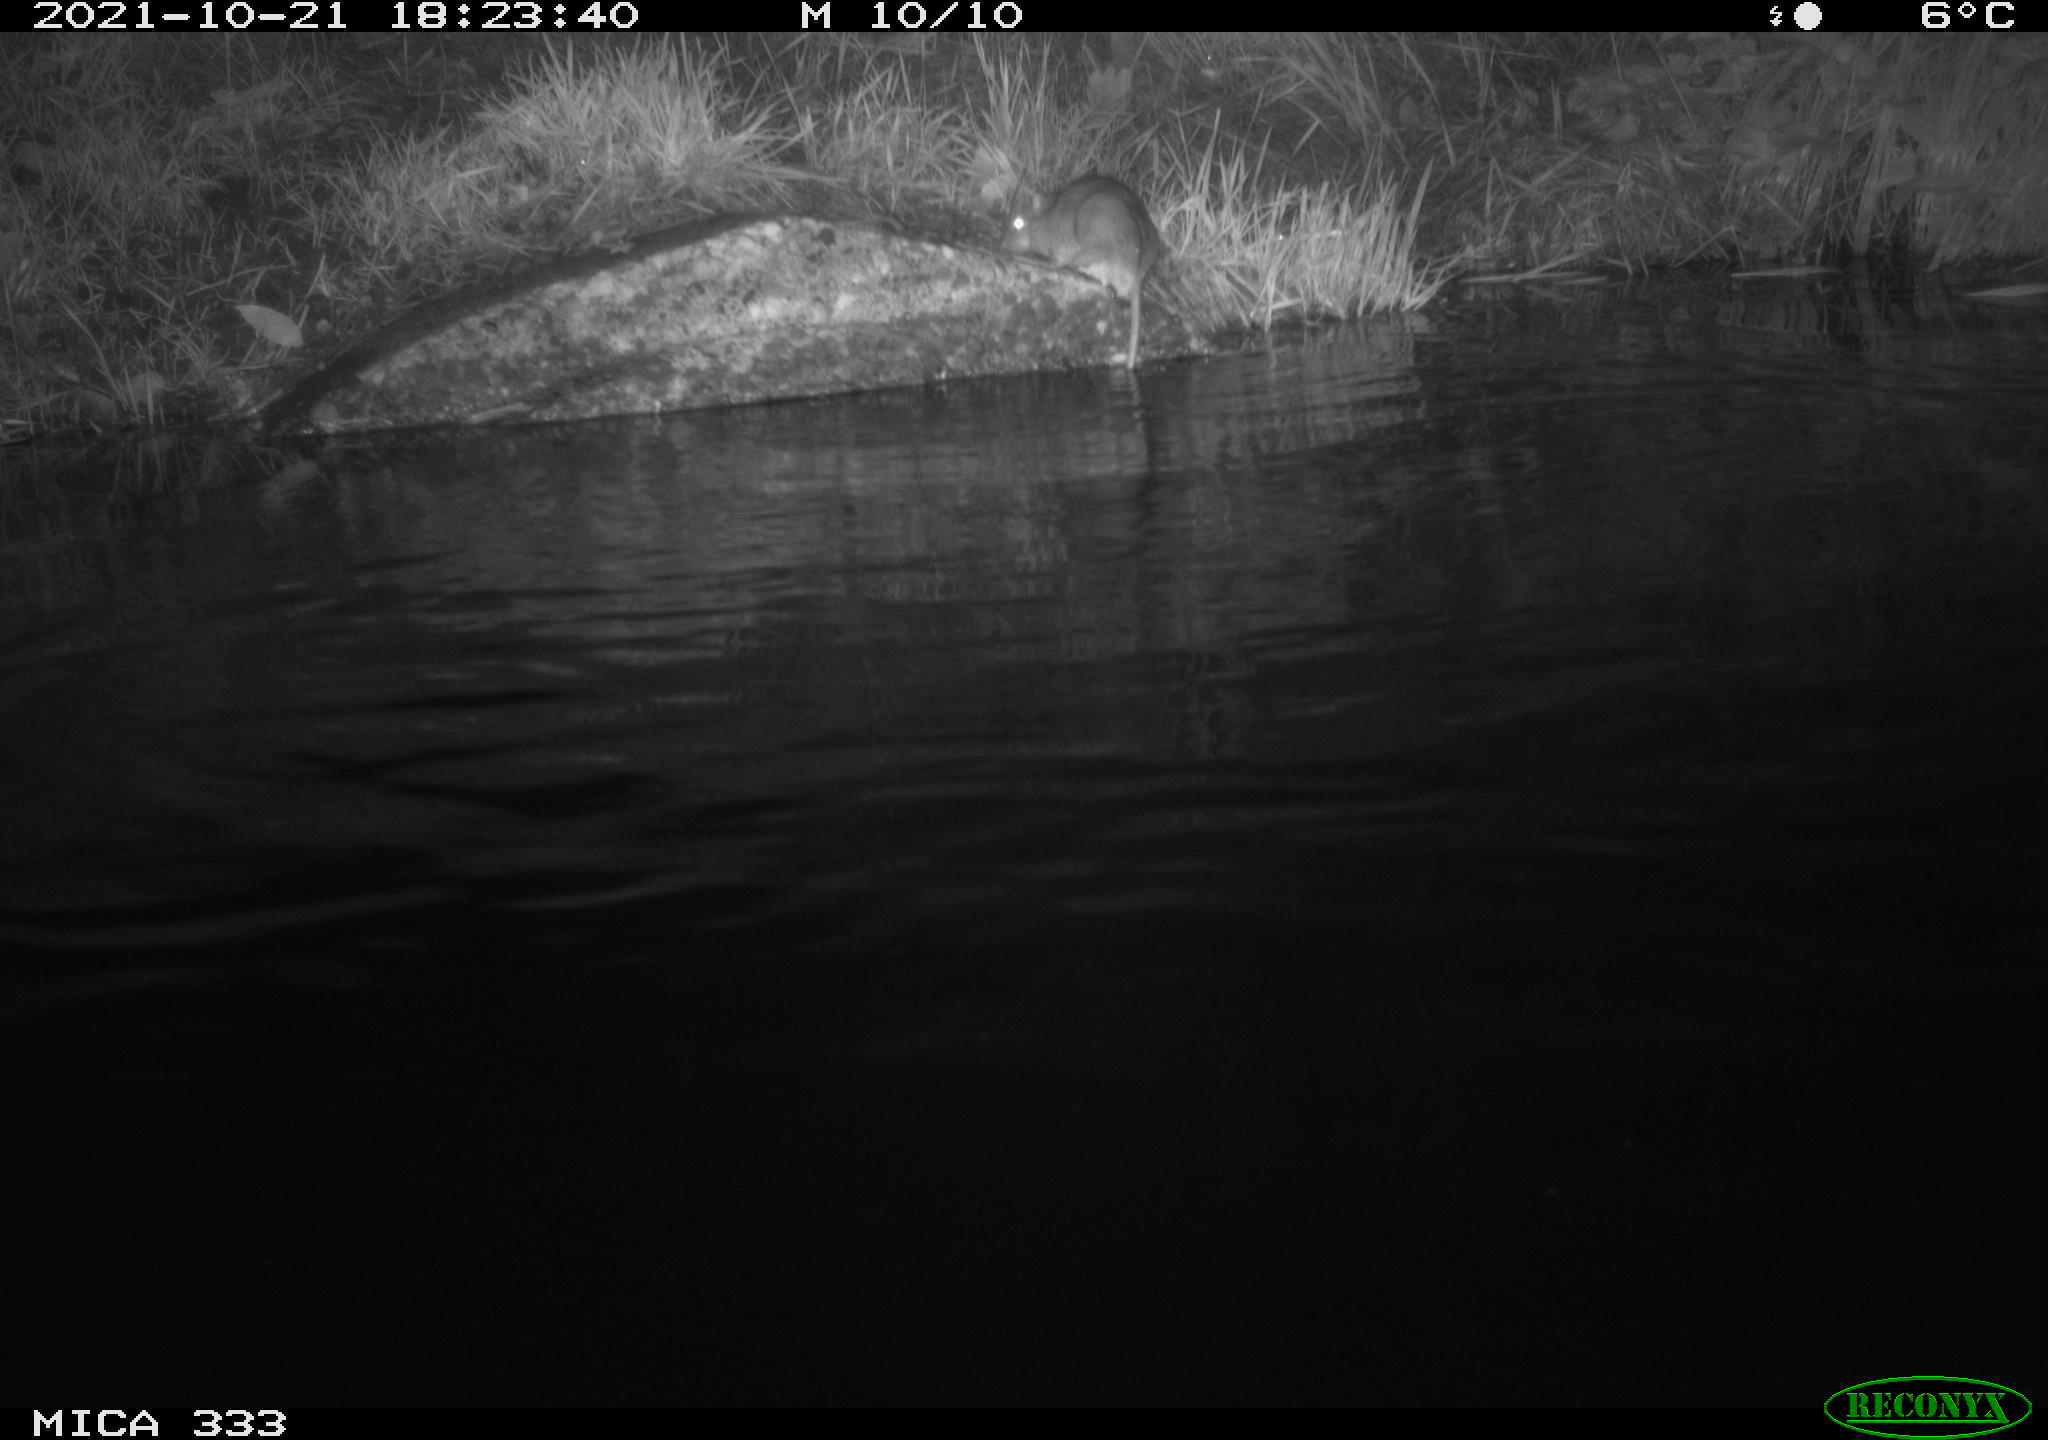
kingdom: Animalia
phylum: Chordata
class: Mammalia
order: Rodentia
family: Muridae
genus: Rattus
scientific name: Rattus norvegicus
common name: Brown rat
